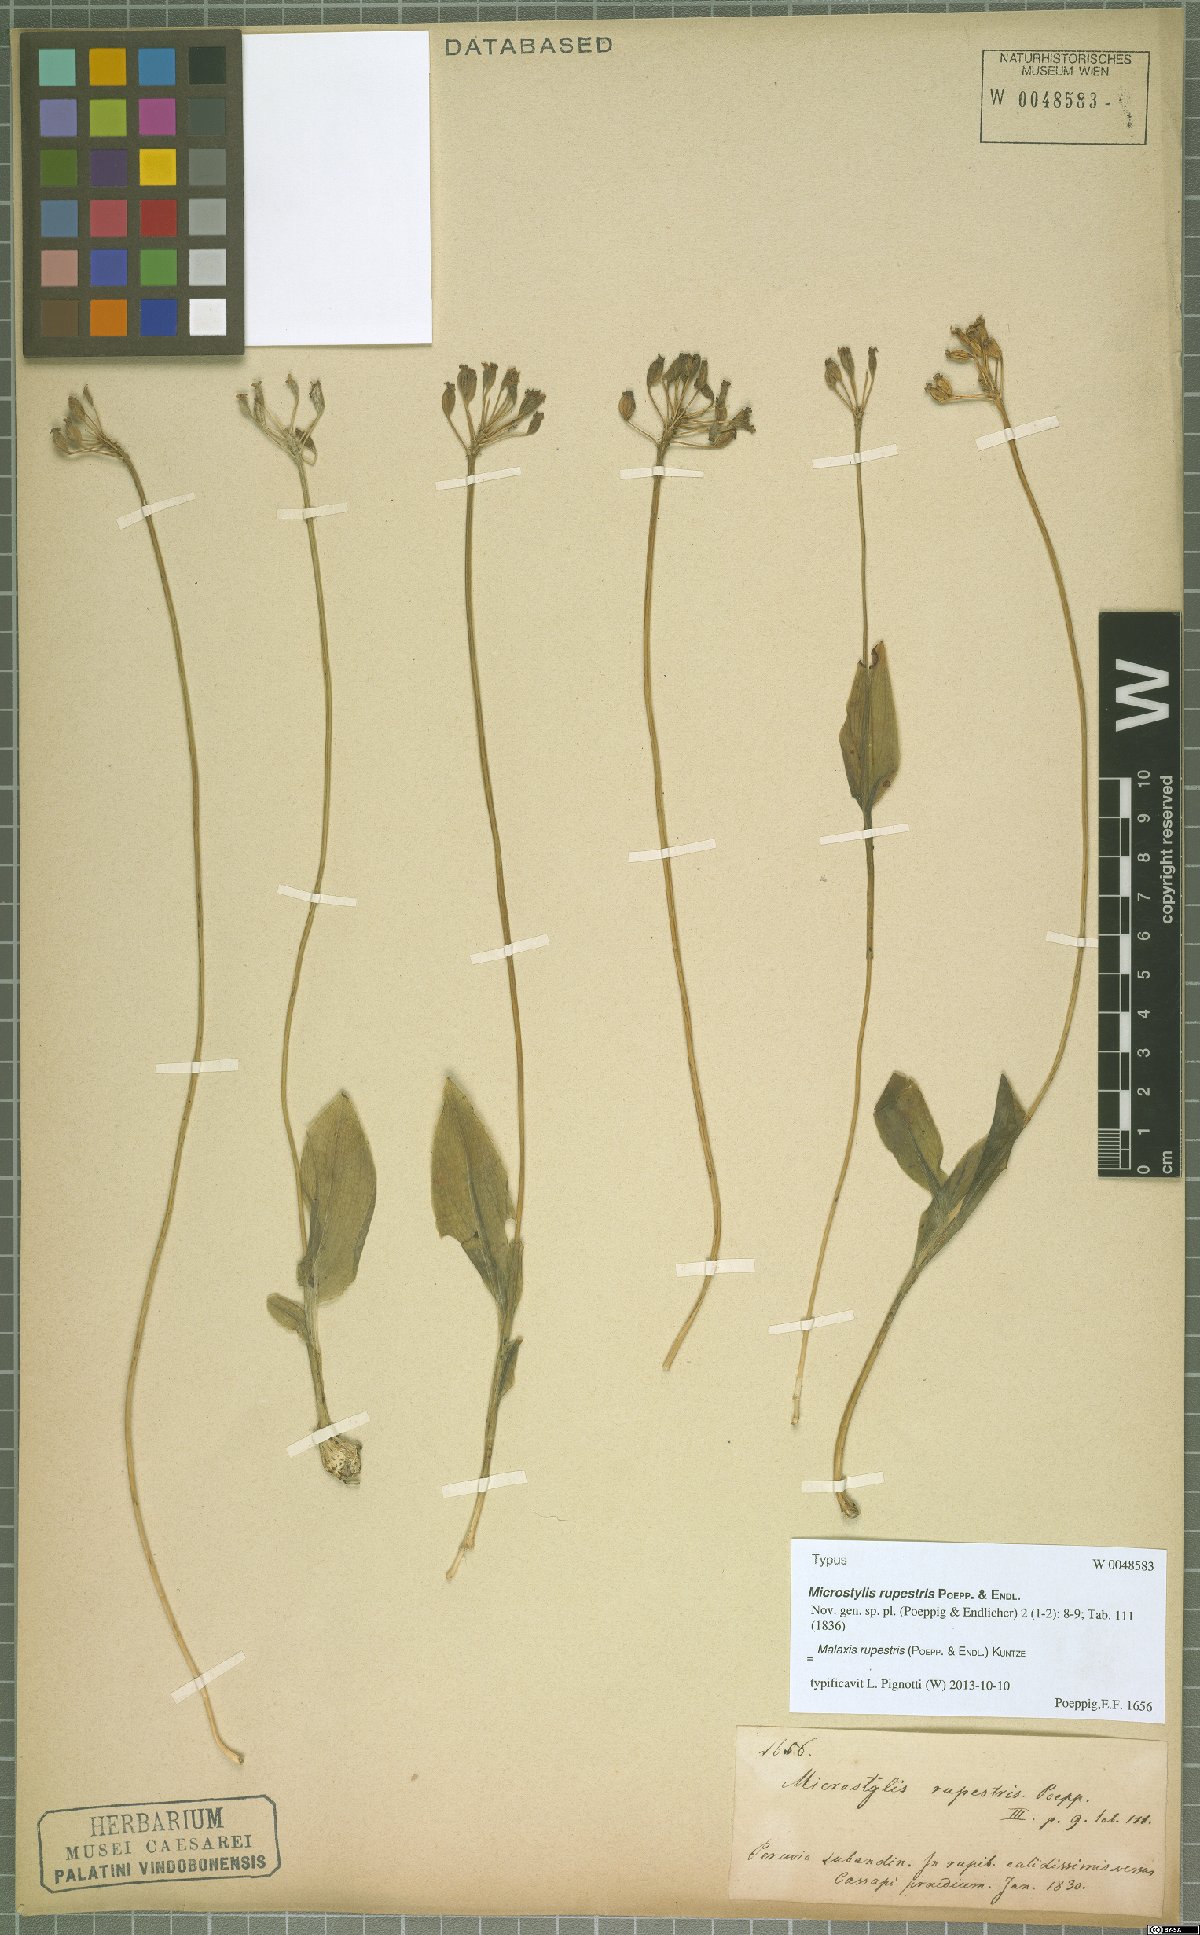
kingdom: Plantae
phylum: Tracheophyta
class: Liliopsida
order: Asparagales
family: Orchidaceae
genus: Malaxis
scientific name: Malaxis rupestris
